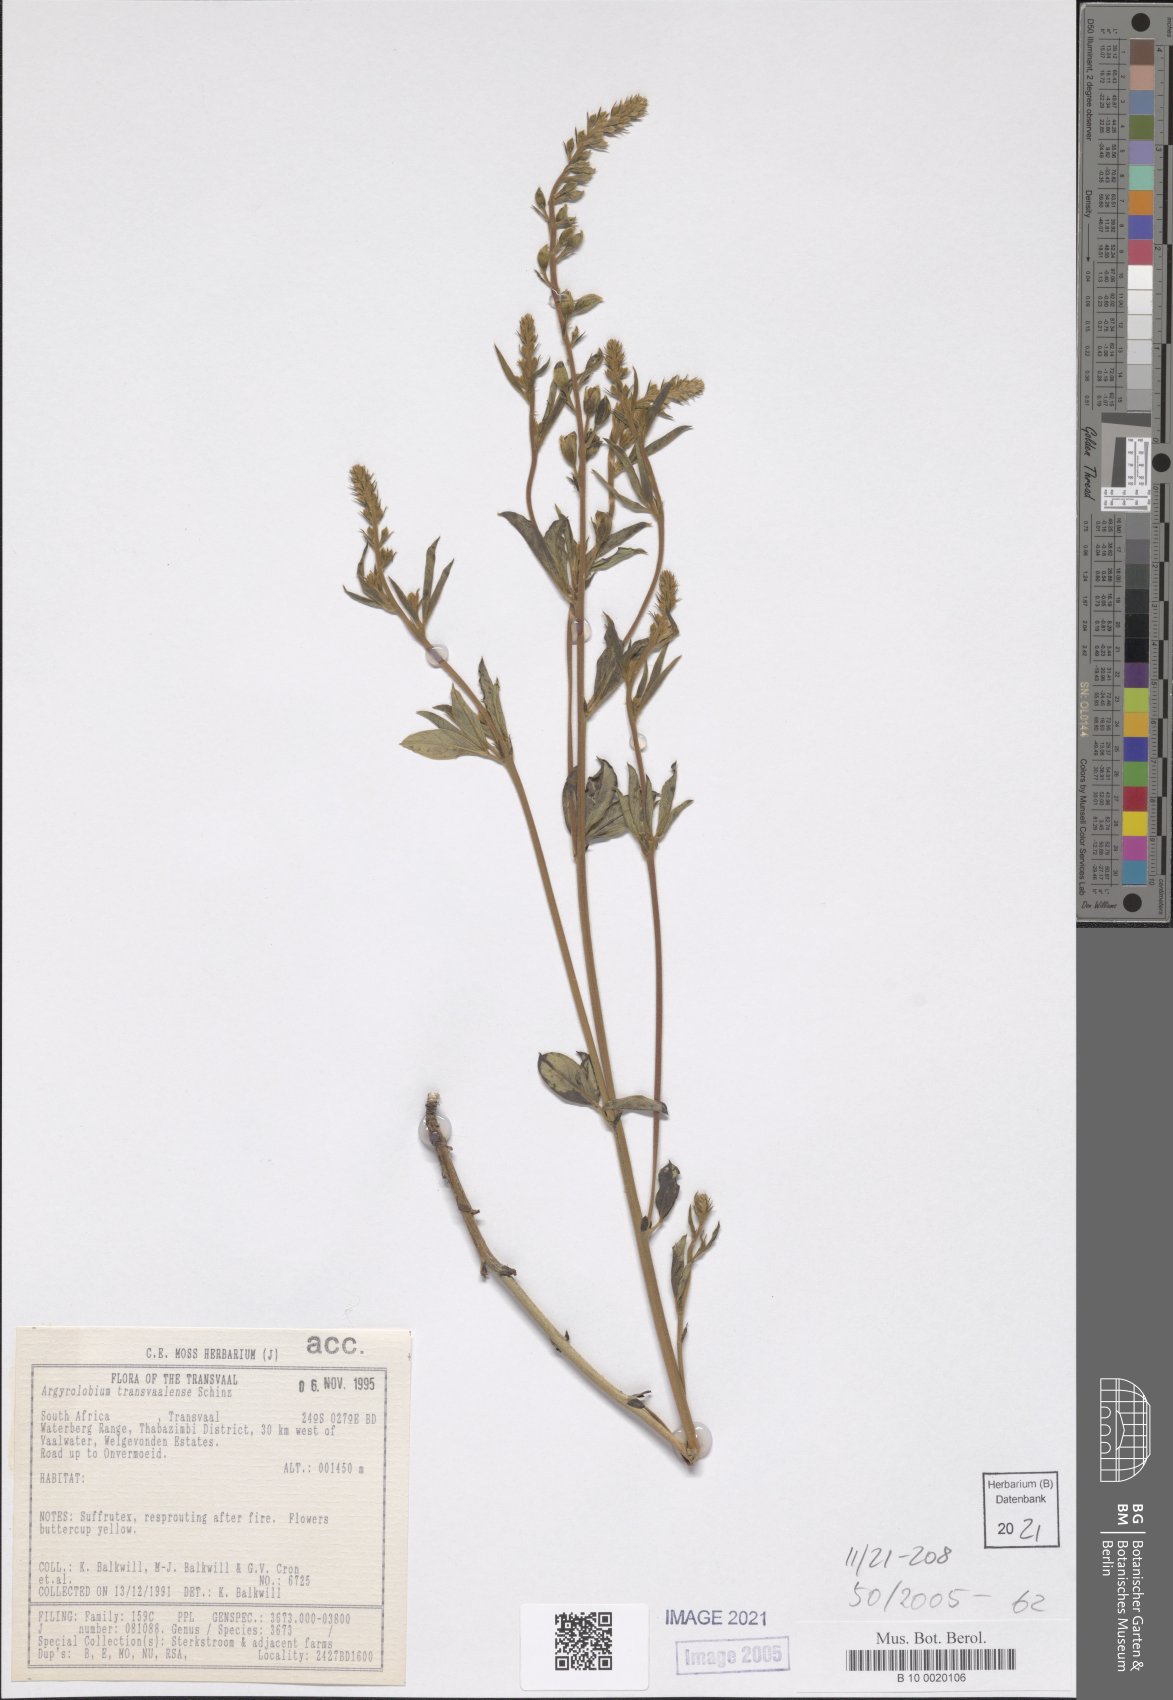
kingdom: Plantae
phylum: Tracheophyta
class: Magnoliopsida
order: Fabales
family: Fabaceae
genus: Argyrolobium
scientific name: Argyrolobium transvaalense
